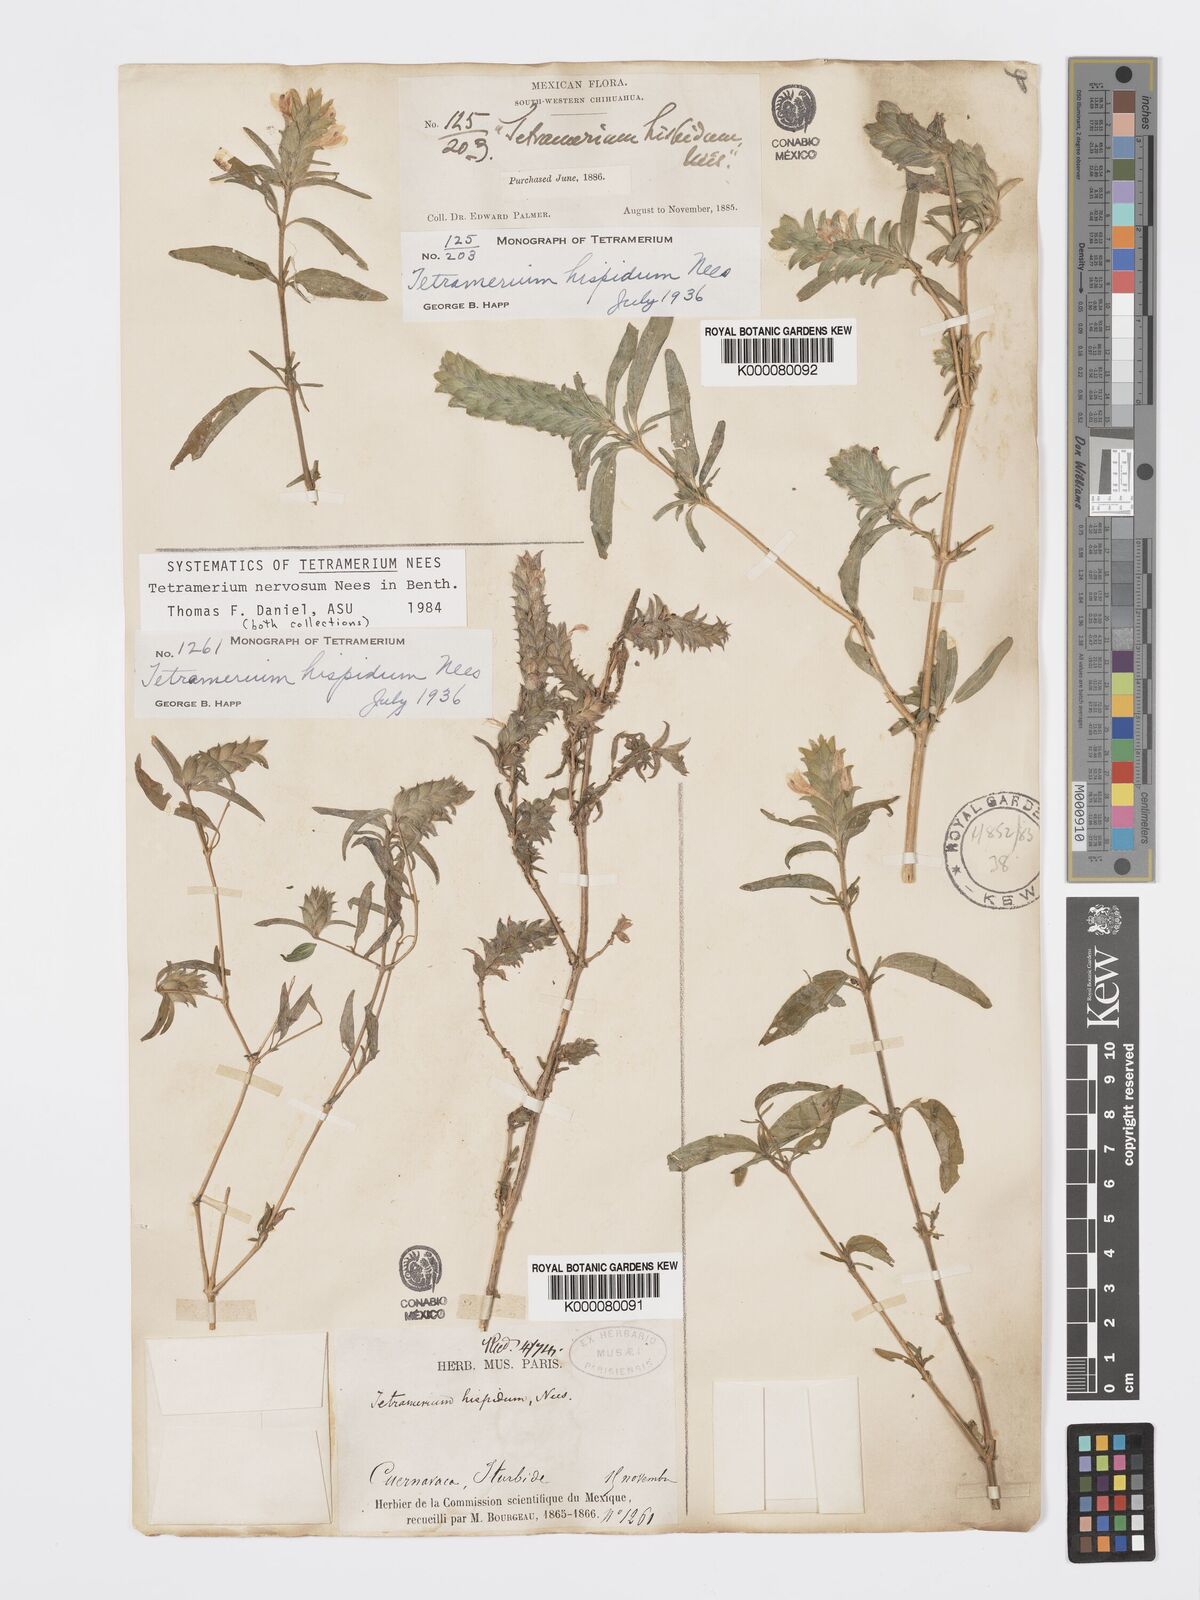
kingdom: Plantae
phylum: Tracheophyta
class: Magnoliopsida
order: Lamiales
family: Acanthaceae
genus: Tetramerium
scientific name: Tetramerium nervosum
